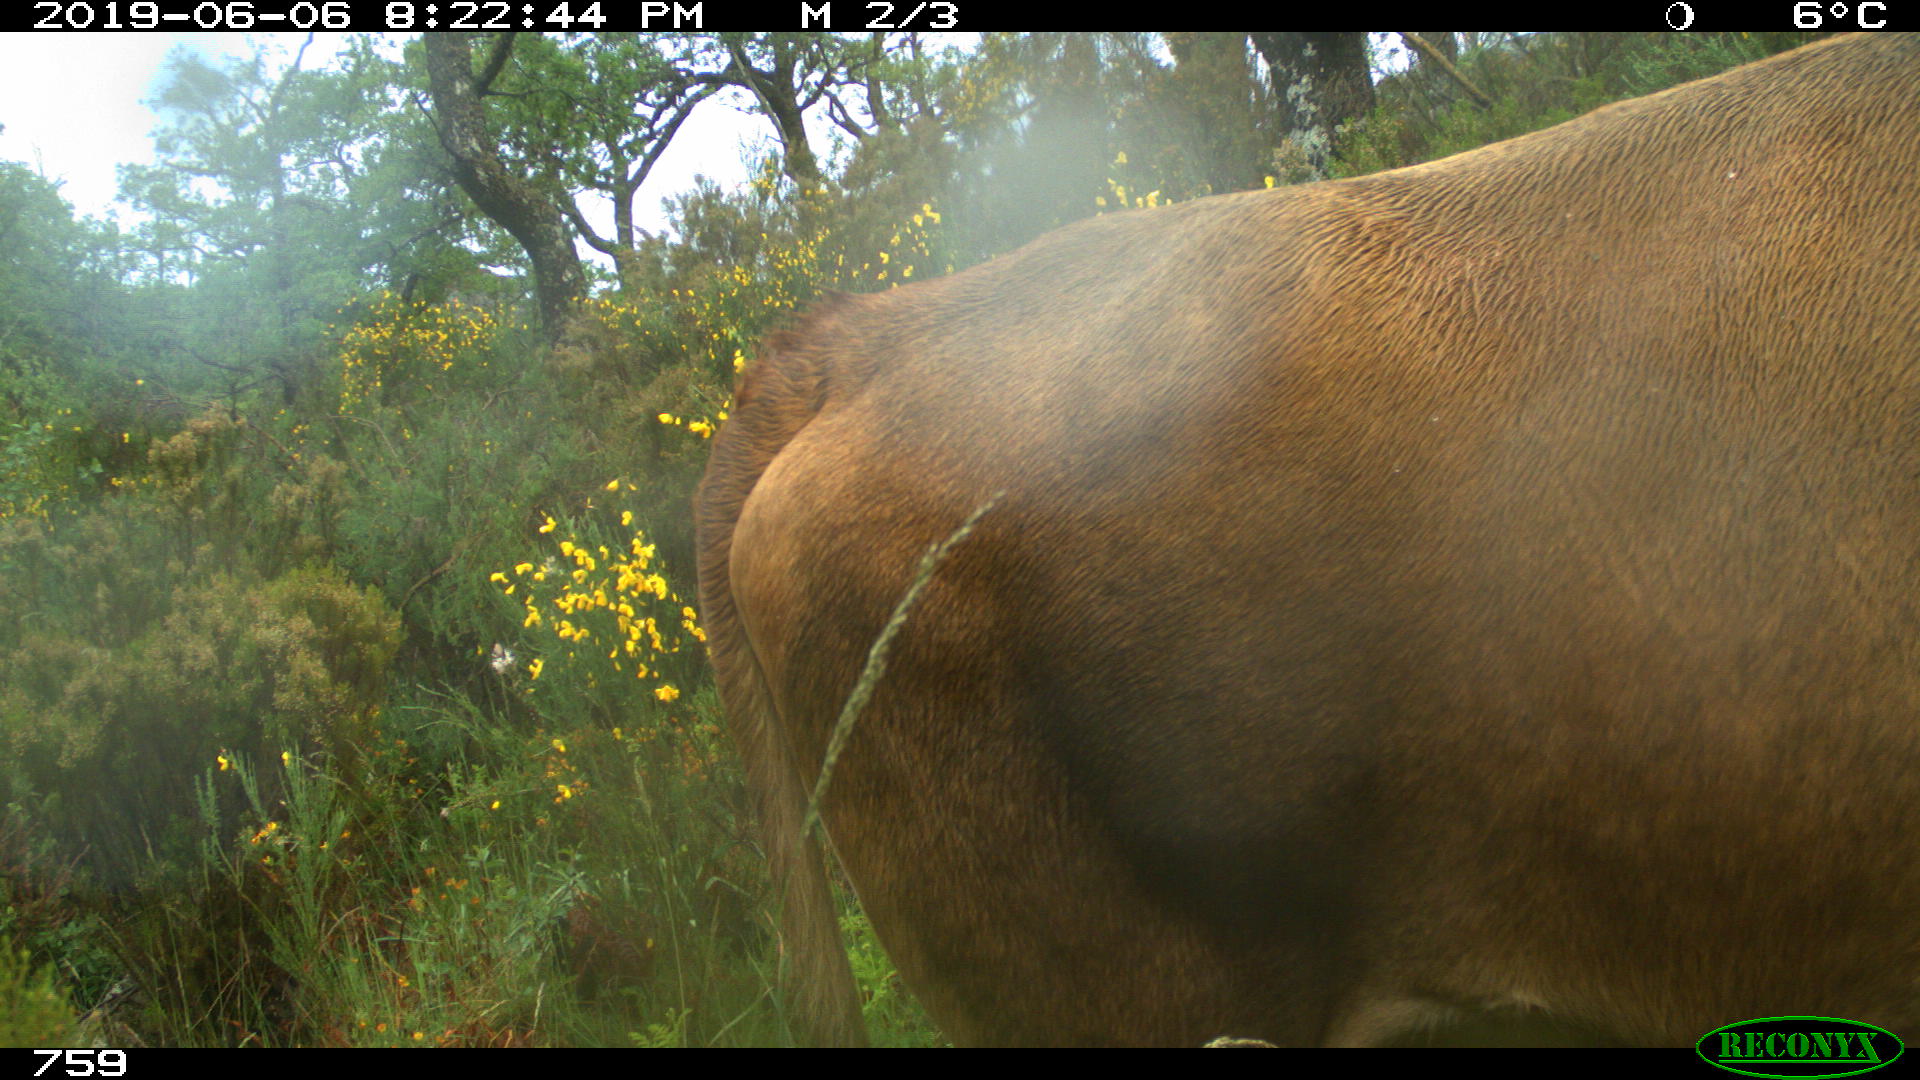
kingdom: Animalia
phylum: Chordata
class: Mammalia
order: Artiodactyla
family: Bovidae
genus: Bos
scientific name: Bos taurus
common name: Domesticated cattle
